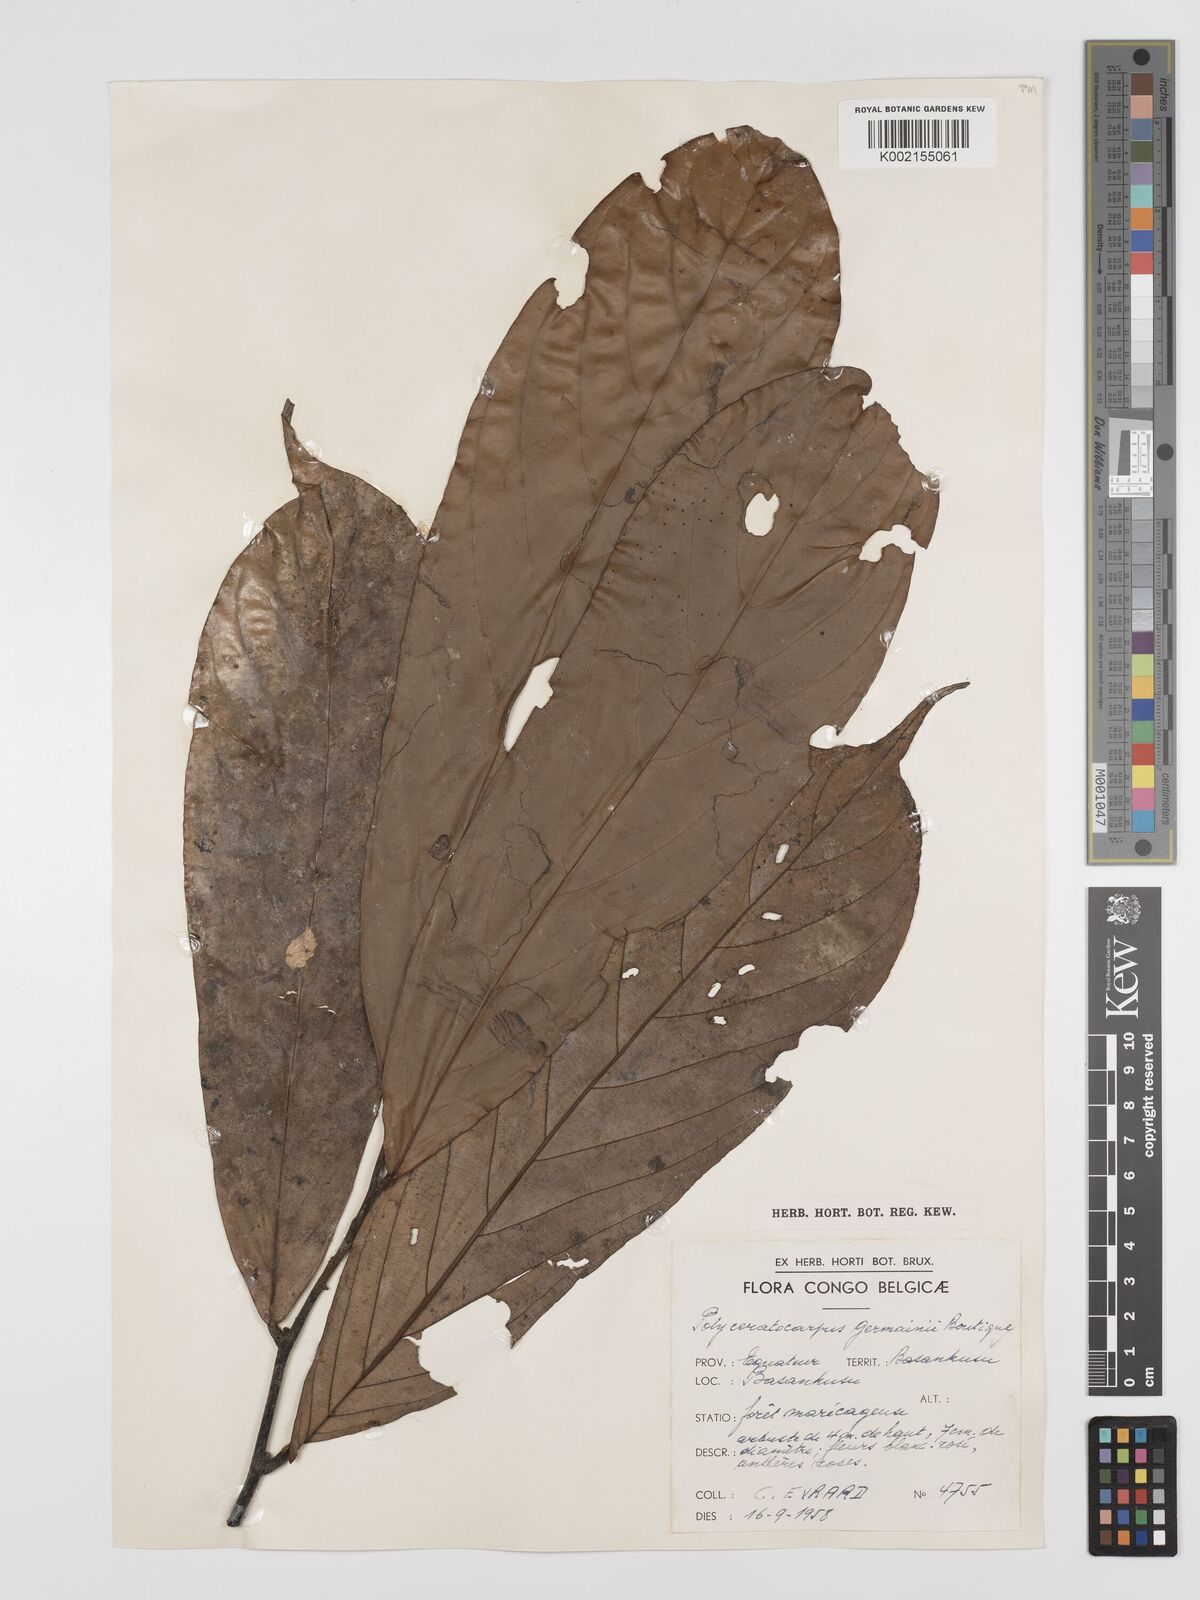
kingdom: Plantae
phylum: Tracheophyta
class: Magnoliopsida
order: Magnoliales
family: Annonaceae
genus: Polyceratocarpus
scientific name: Polyceratocarpus germainii
